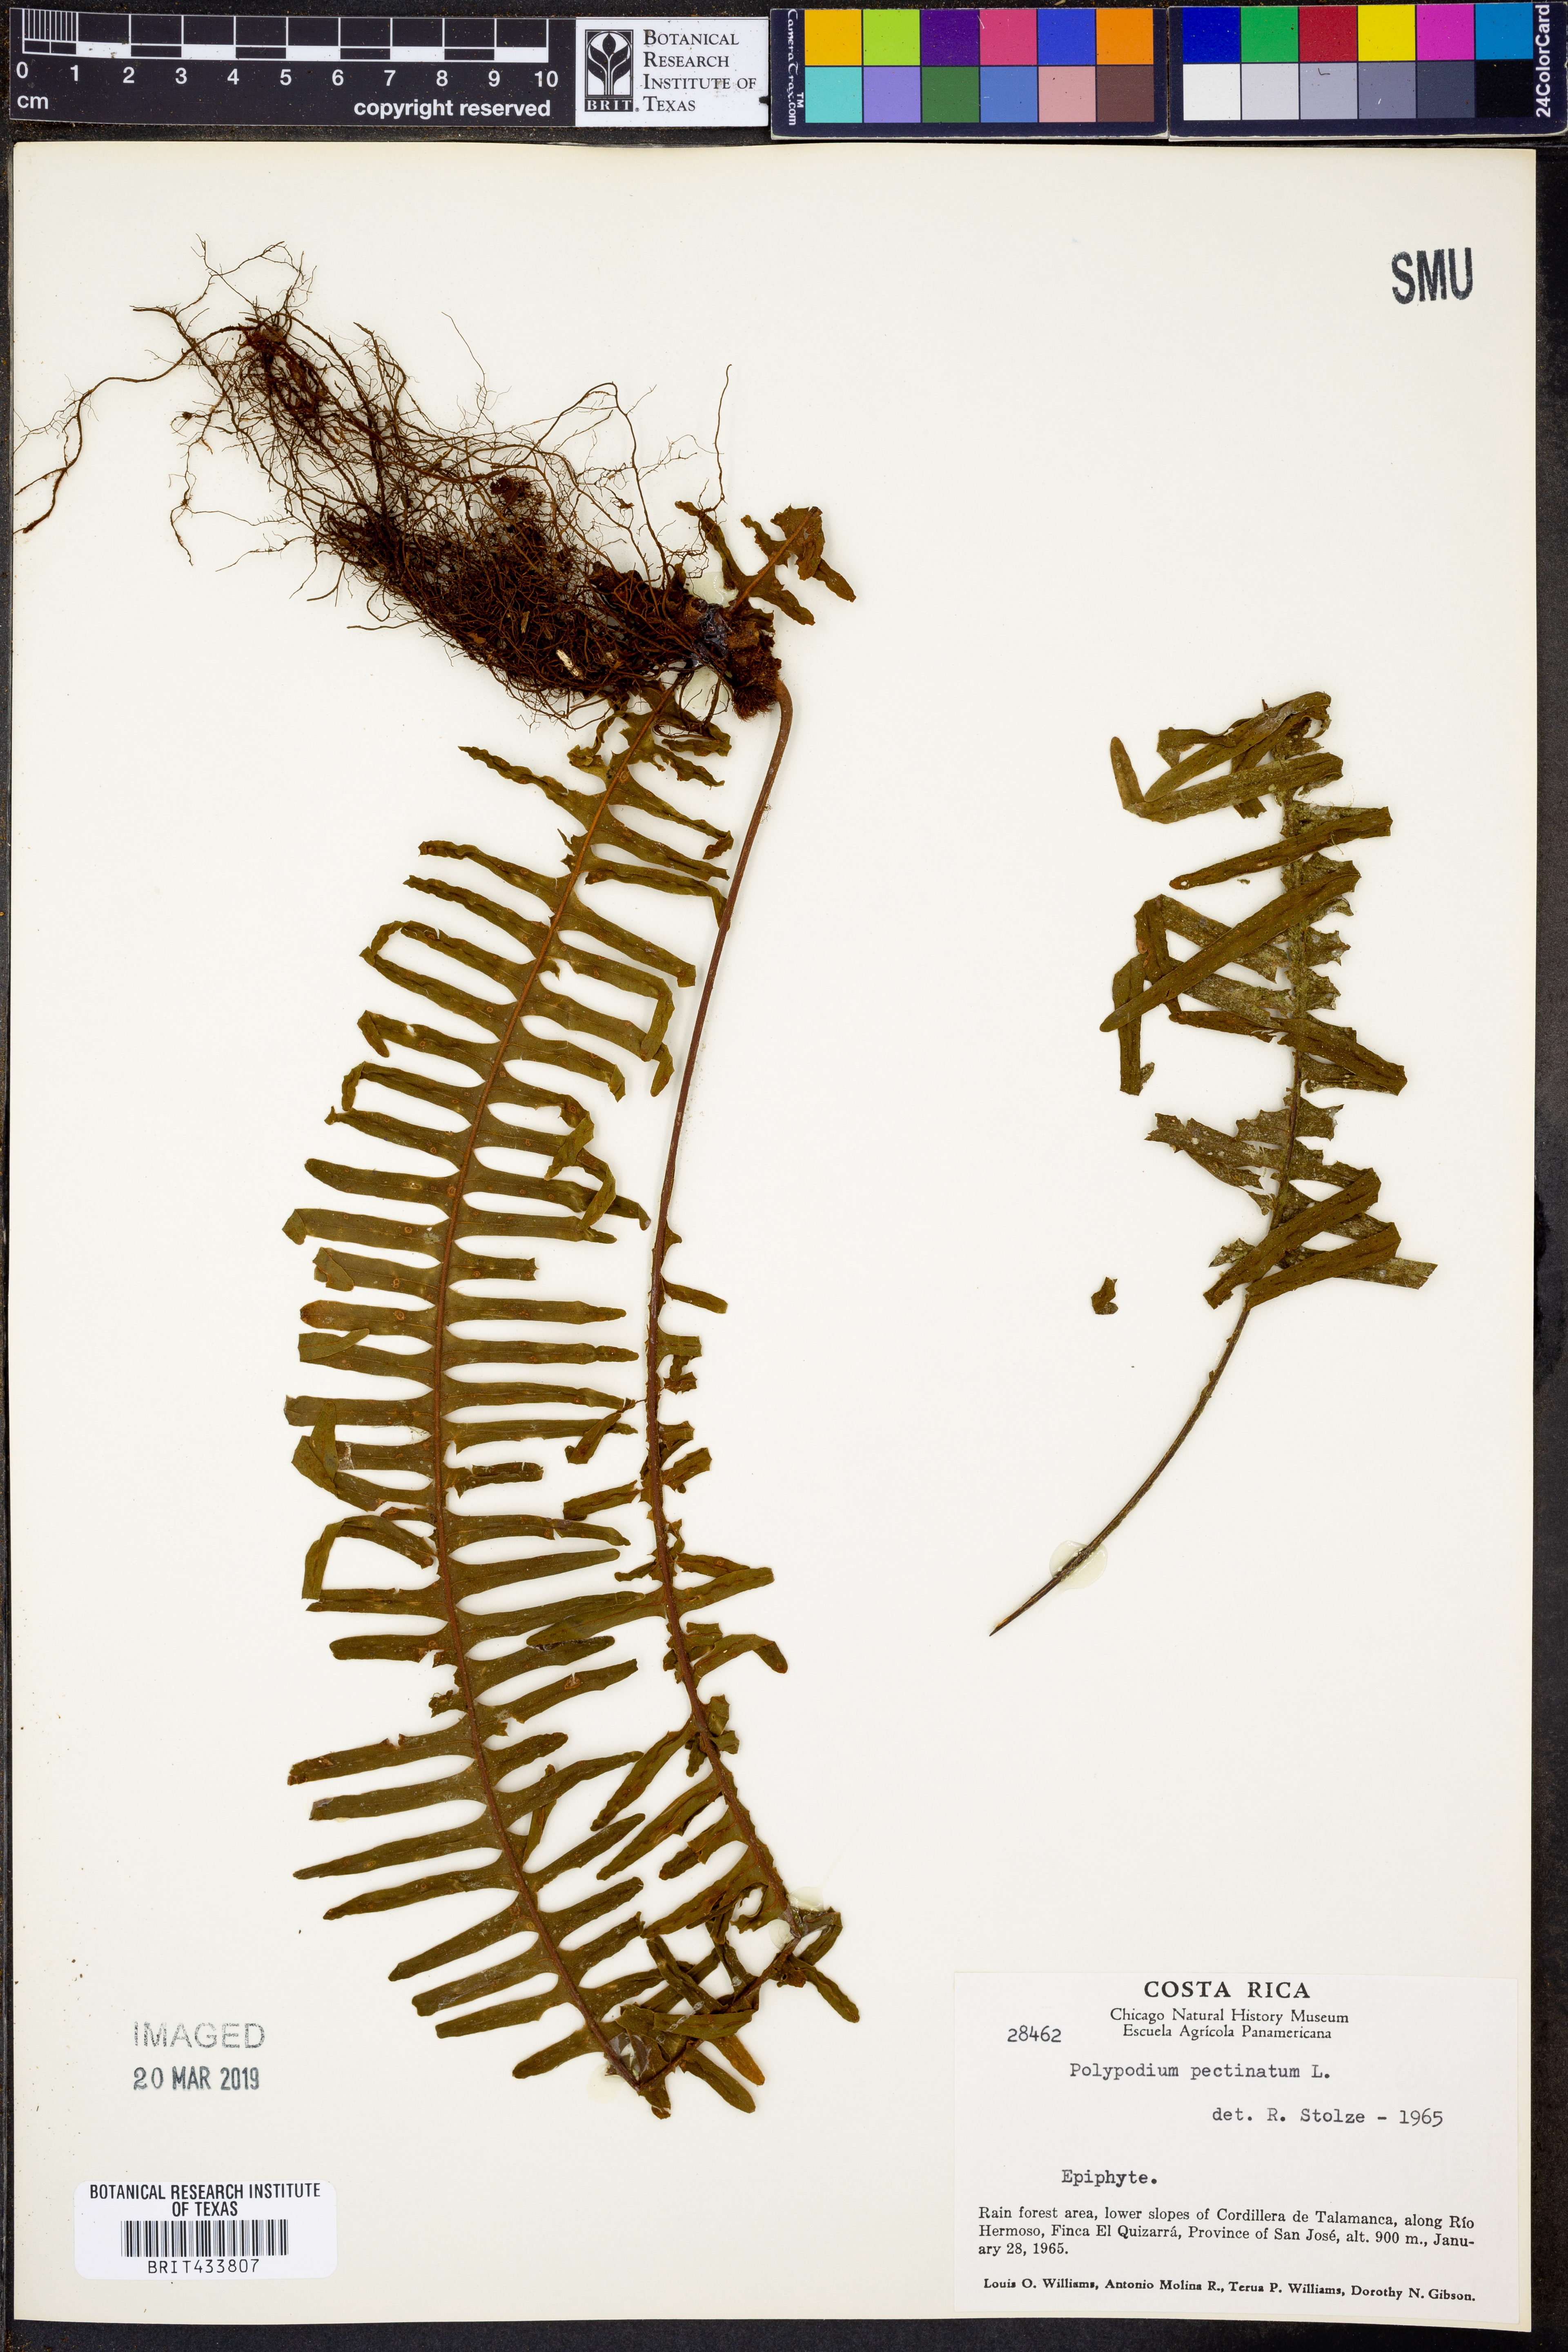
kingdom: Plantae
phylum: Tracheophyta
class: Polypodiopsida
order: Polypodiales
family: Polypodiaceae
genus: Pecluma
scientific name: Pecluma pectinata
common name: Msasa fern
